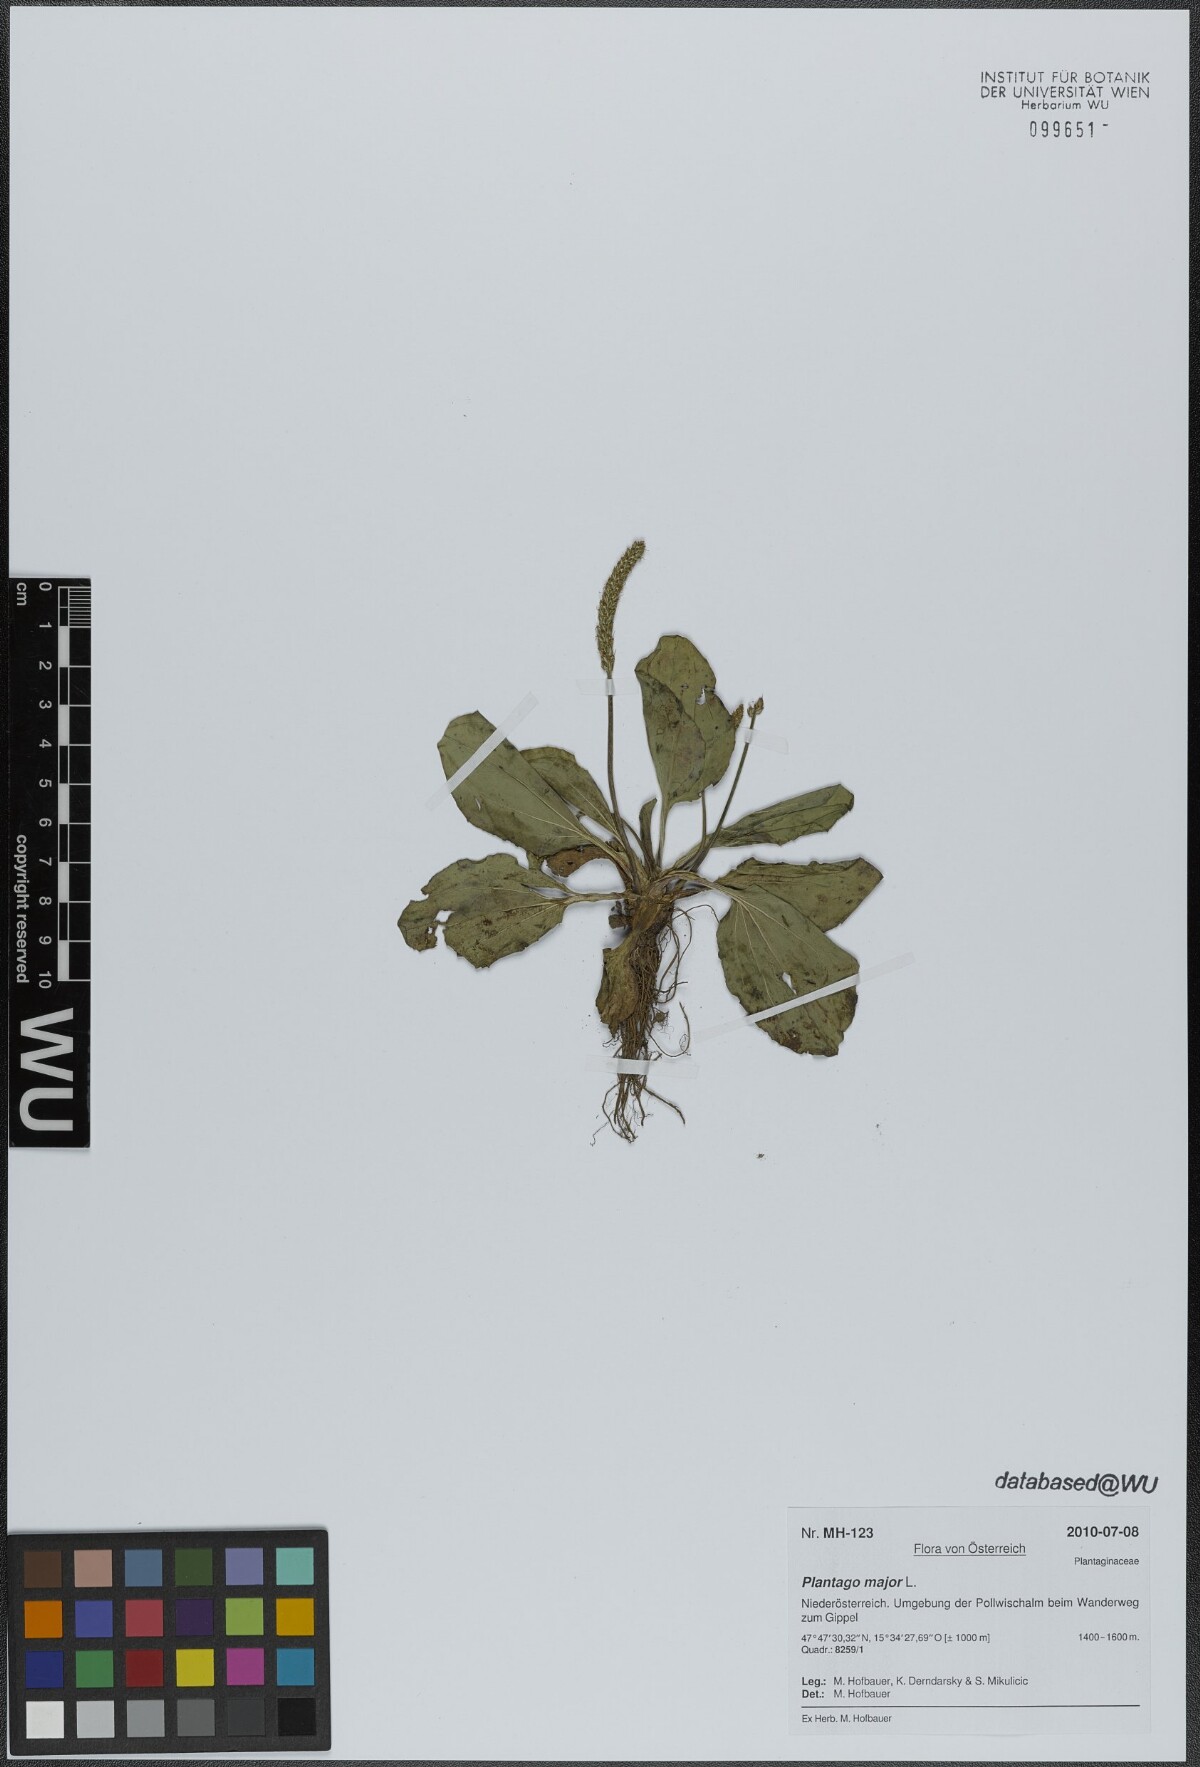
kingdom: Plantae
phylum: Tracheophyta
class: Magnoliopsida
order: Lamiales
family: Plantaginaceae
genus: Plantago
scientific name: Plantago major
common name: Common plantain
